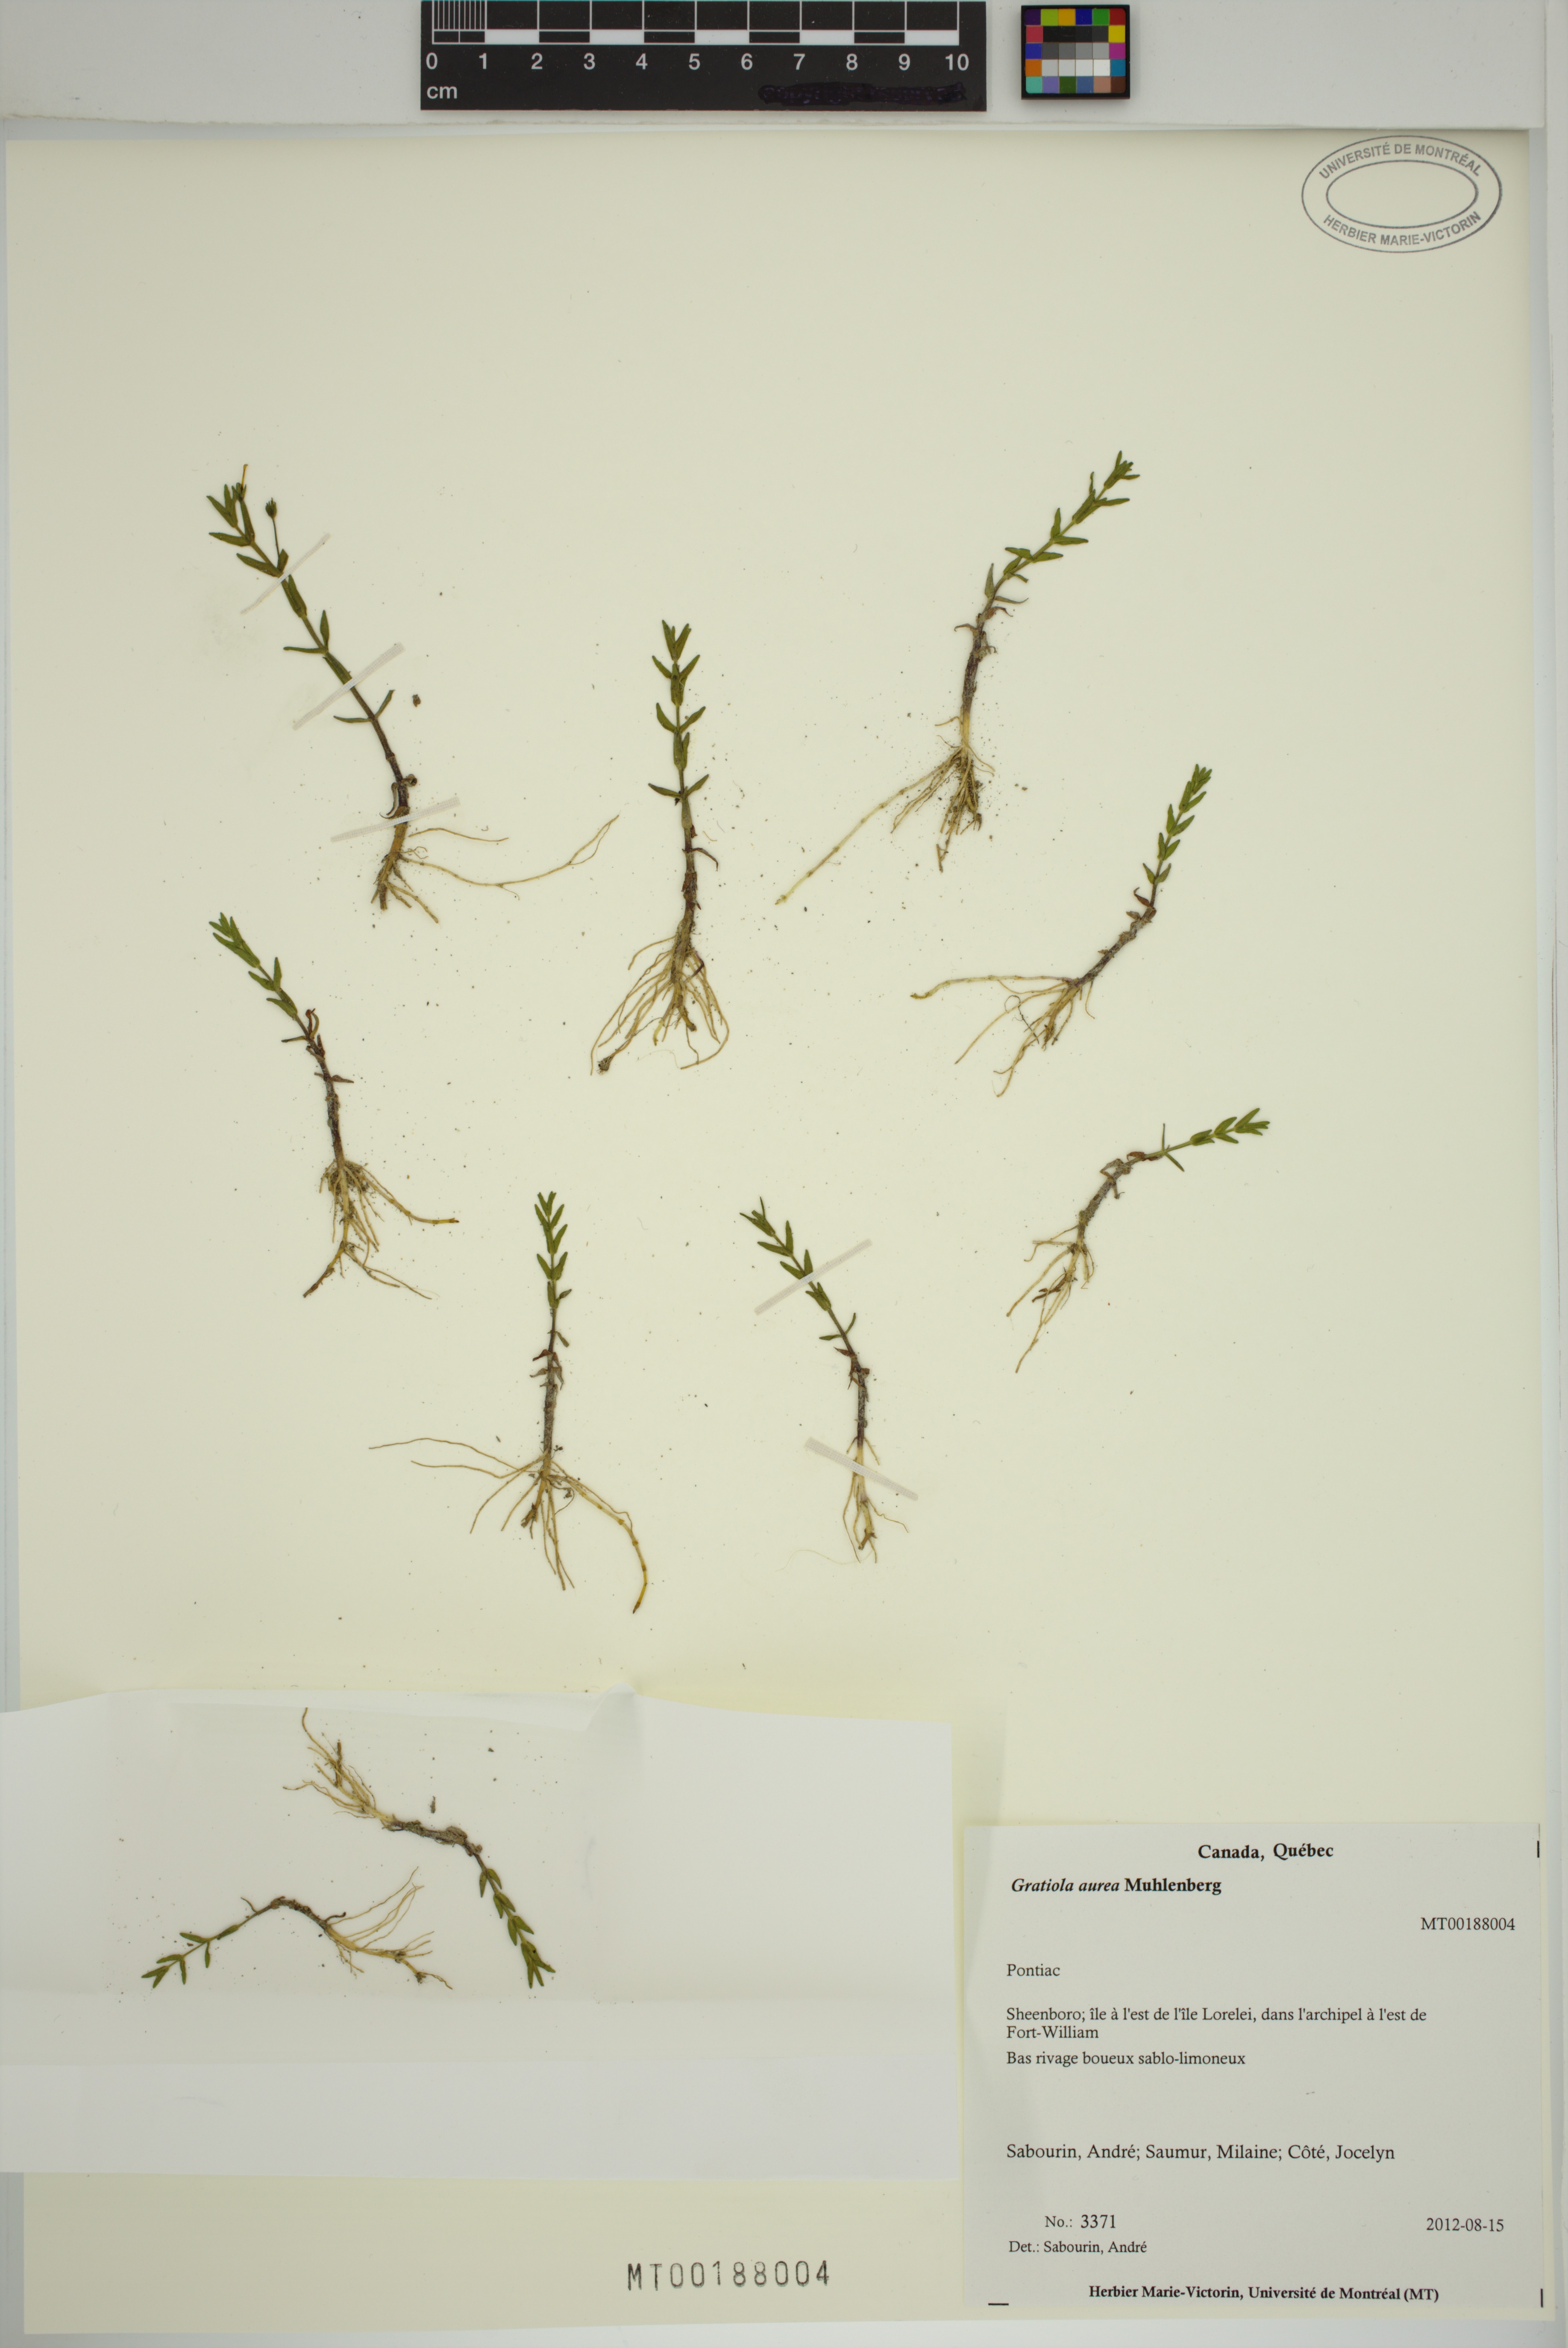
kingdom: Plantae
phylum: Tracheophyta
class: Magnoliopsida
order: Lamiales
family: Plantaginaceae
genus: Gratiola
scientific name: Gratiola lutea
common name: Golden hedge-hyssop
